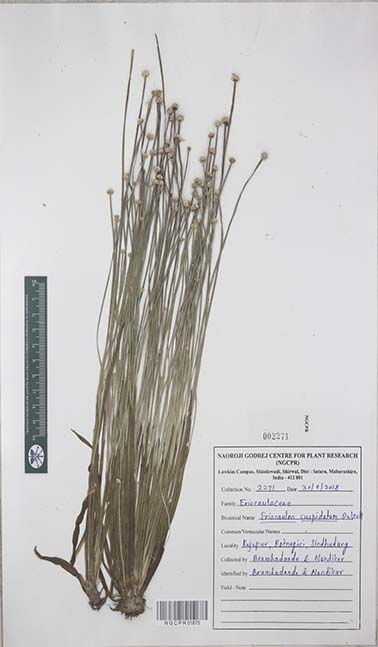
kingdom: Plantae
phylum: Tracheophyta
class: Liliopsida
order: Poales
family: Eriocaulaceae
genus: Eriocaulon
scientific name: Eriocaulon cuspidatum
